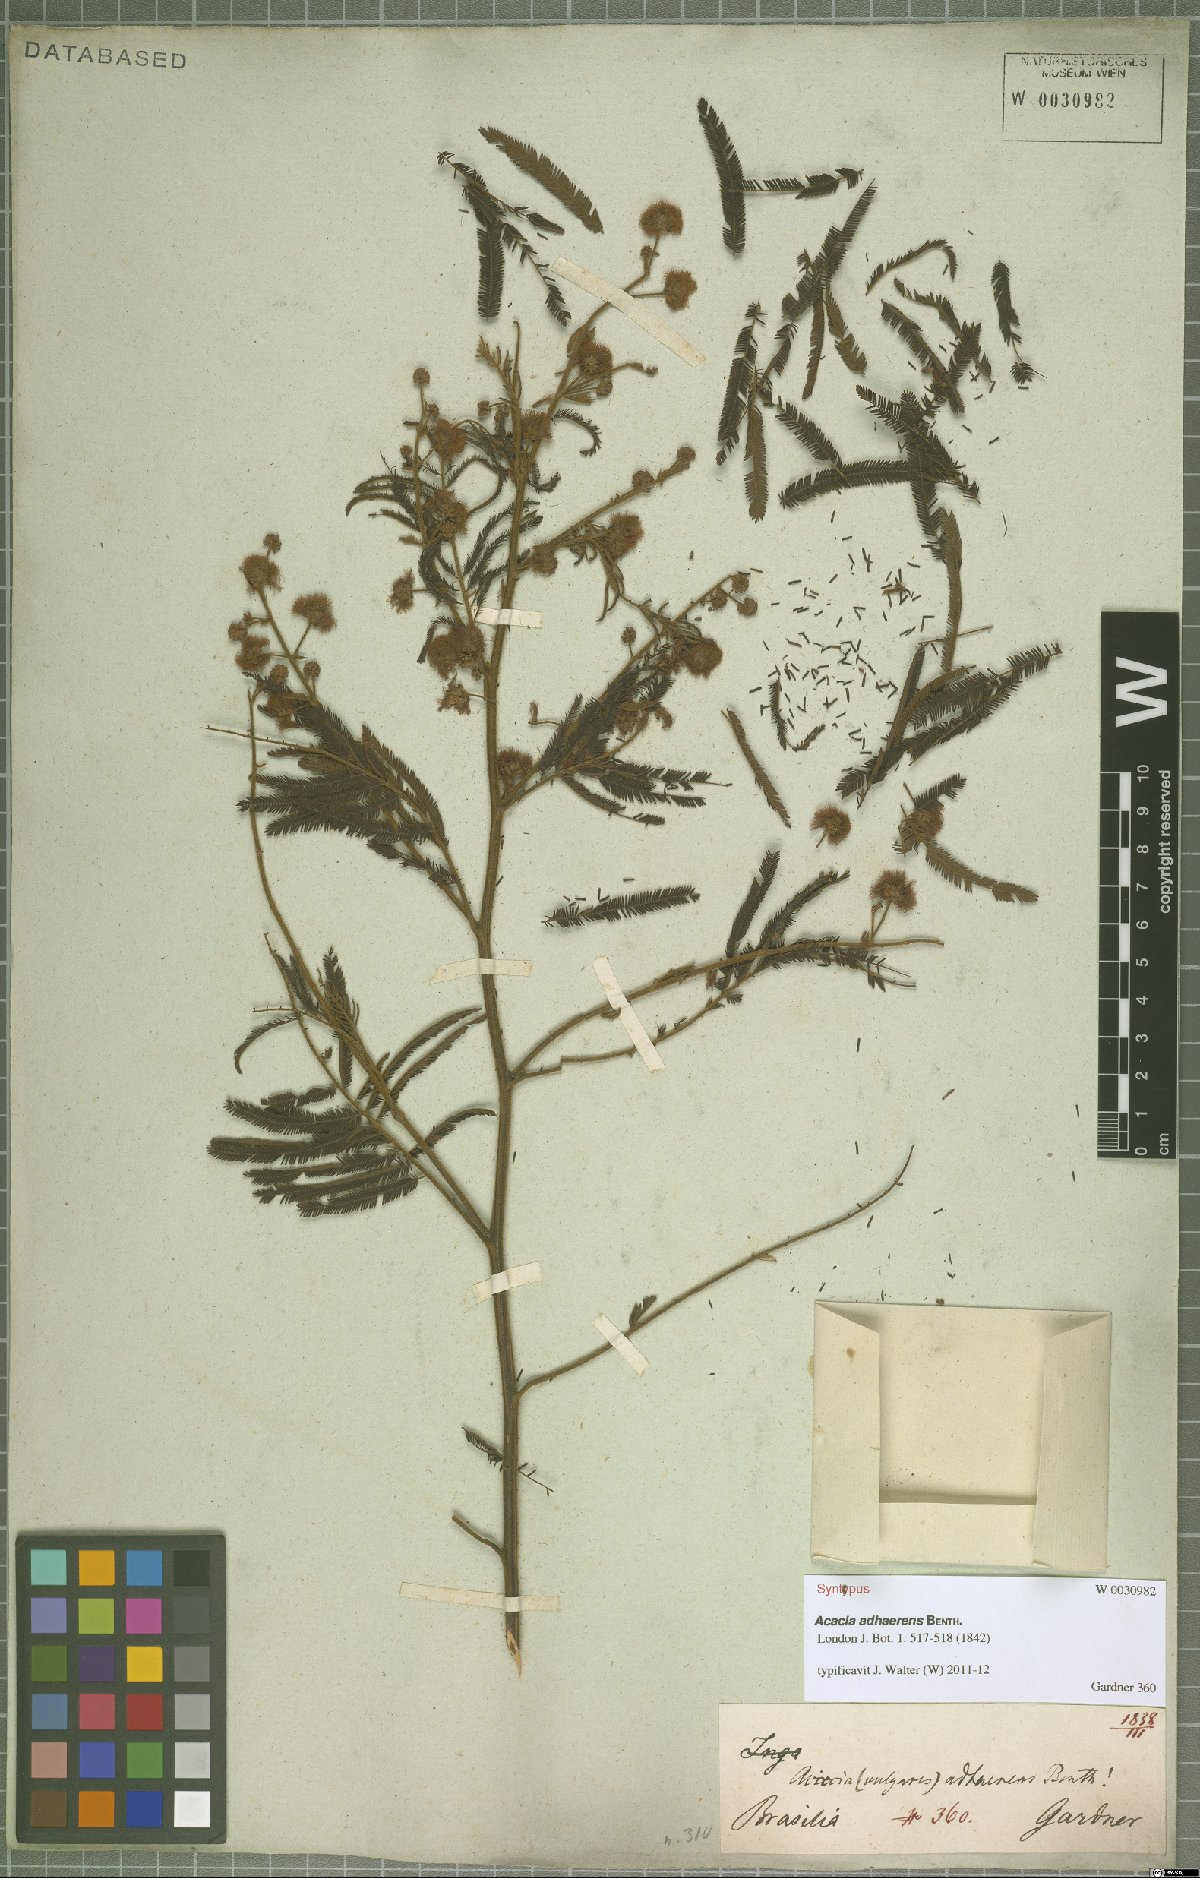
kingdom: Plantae
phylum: Tracheophyta
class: Magnoliopsida
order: Fabales
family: Fabaceae
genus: Senegalia
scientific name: Senegalia martiusiana
